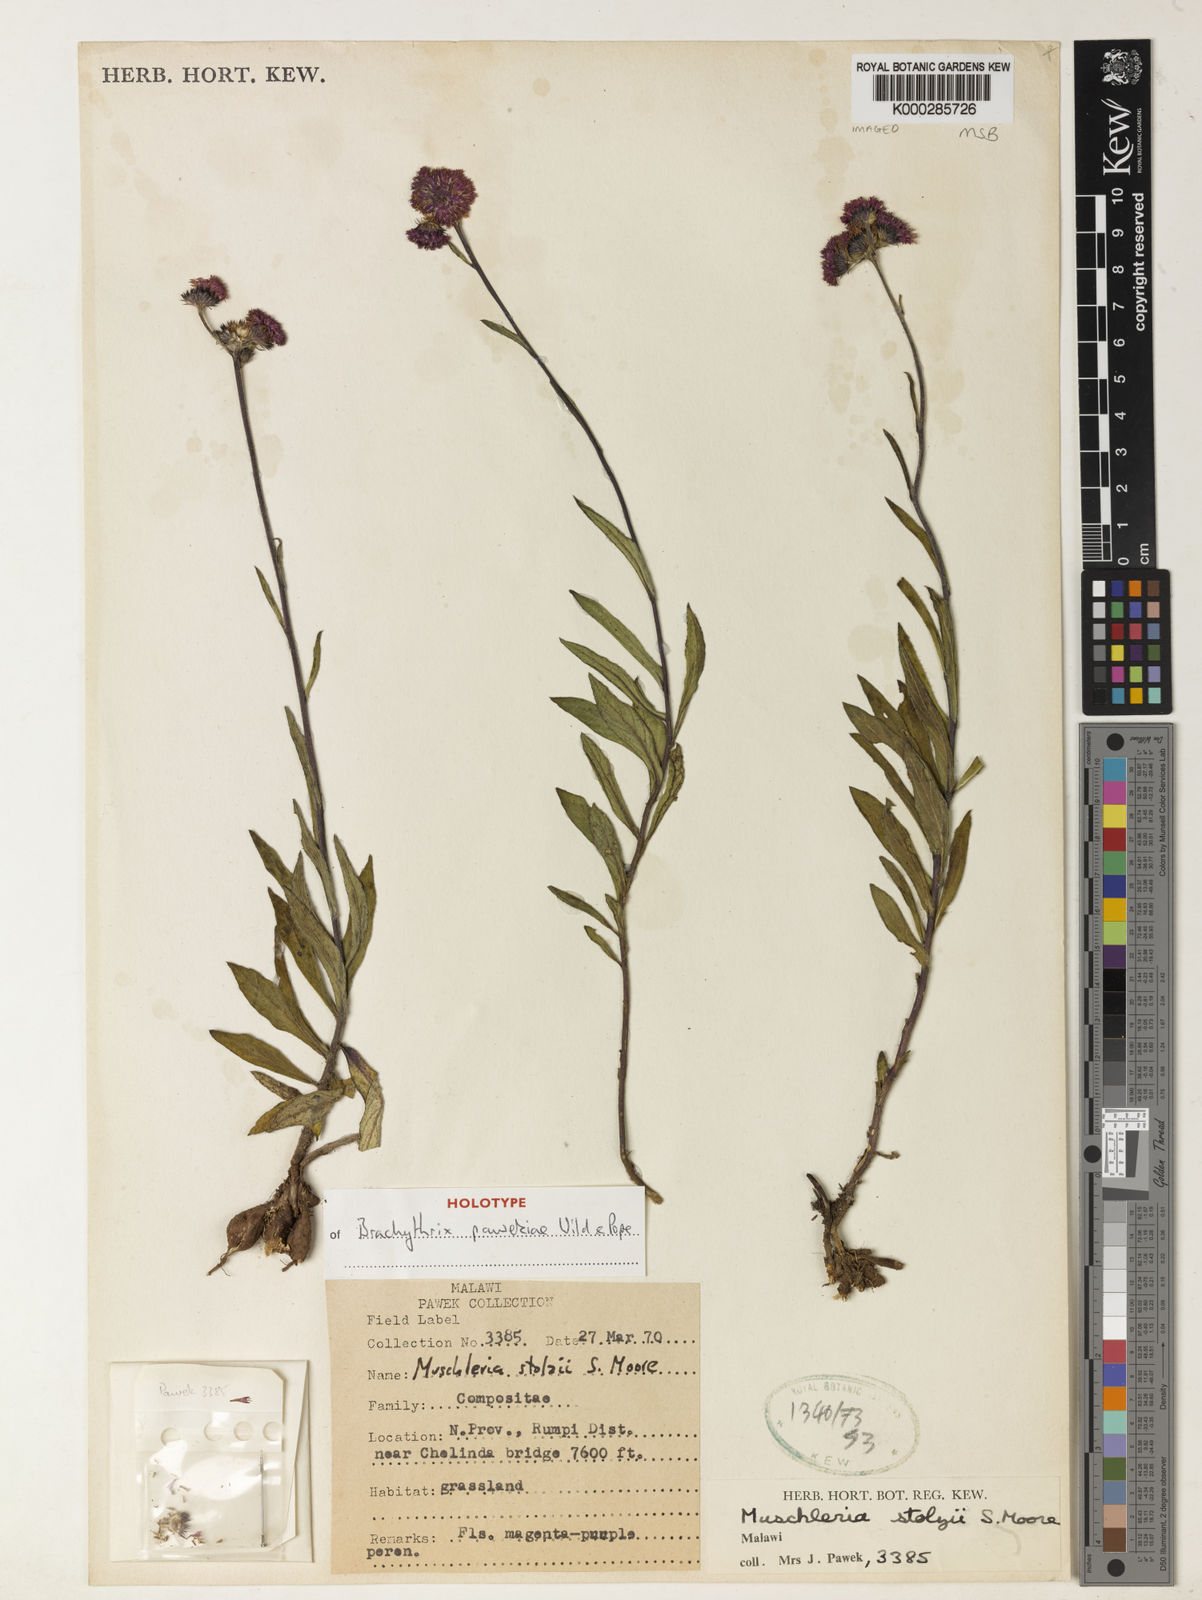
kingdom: Plantae
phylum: Tracheophyta
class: Magnoliopsida
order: Asterales
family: Asteraceae
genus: Brachythrix
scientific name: Brachythrix pawekiae
